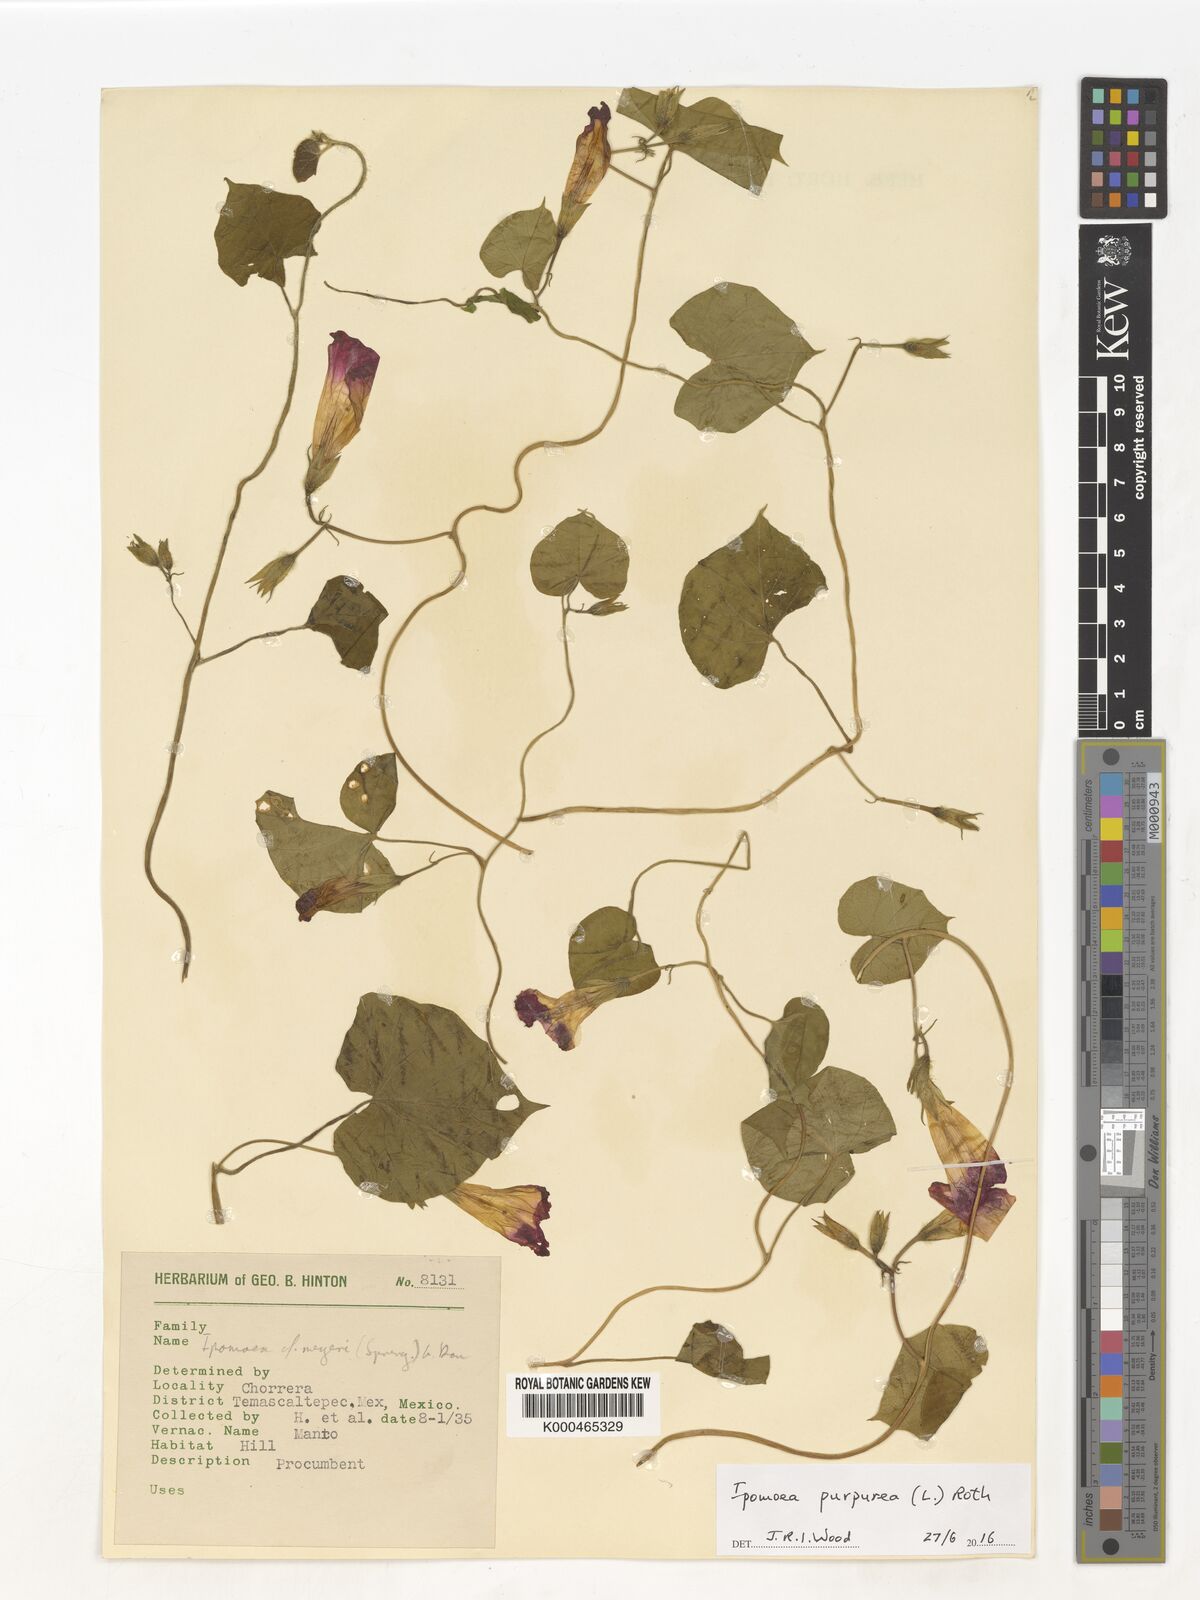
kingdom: Plantae
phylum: Tracheophyta
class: Magnoliopsida
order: Solanales
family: Convolvulaceae
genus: Ipomoea
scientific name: Ipomoea meyeri
